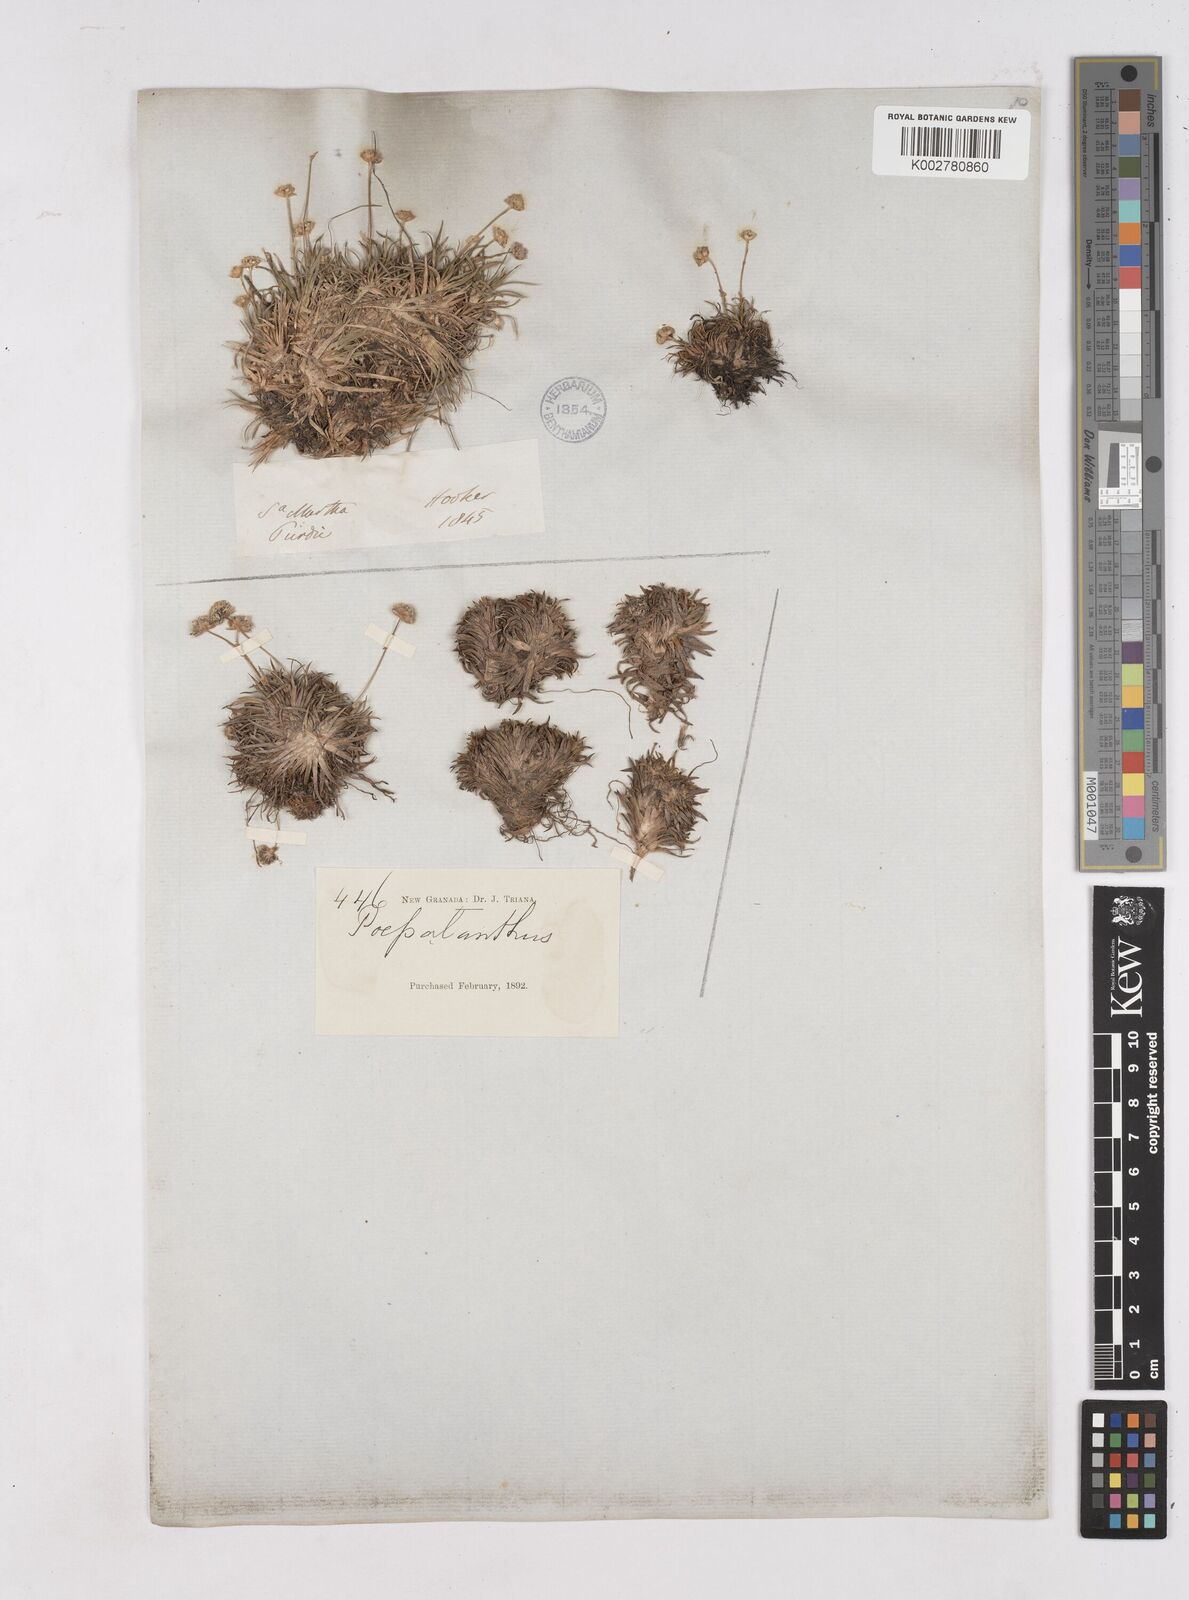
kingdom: Plantae
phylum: Tracheophyta
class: Liliopsida
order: Poales
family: Eriocaulaceae
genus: Paepalanthus
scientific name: Paepalanthus
